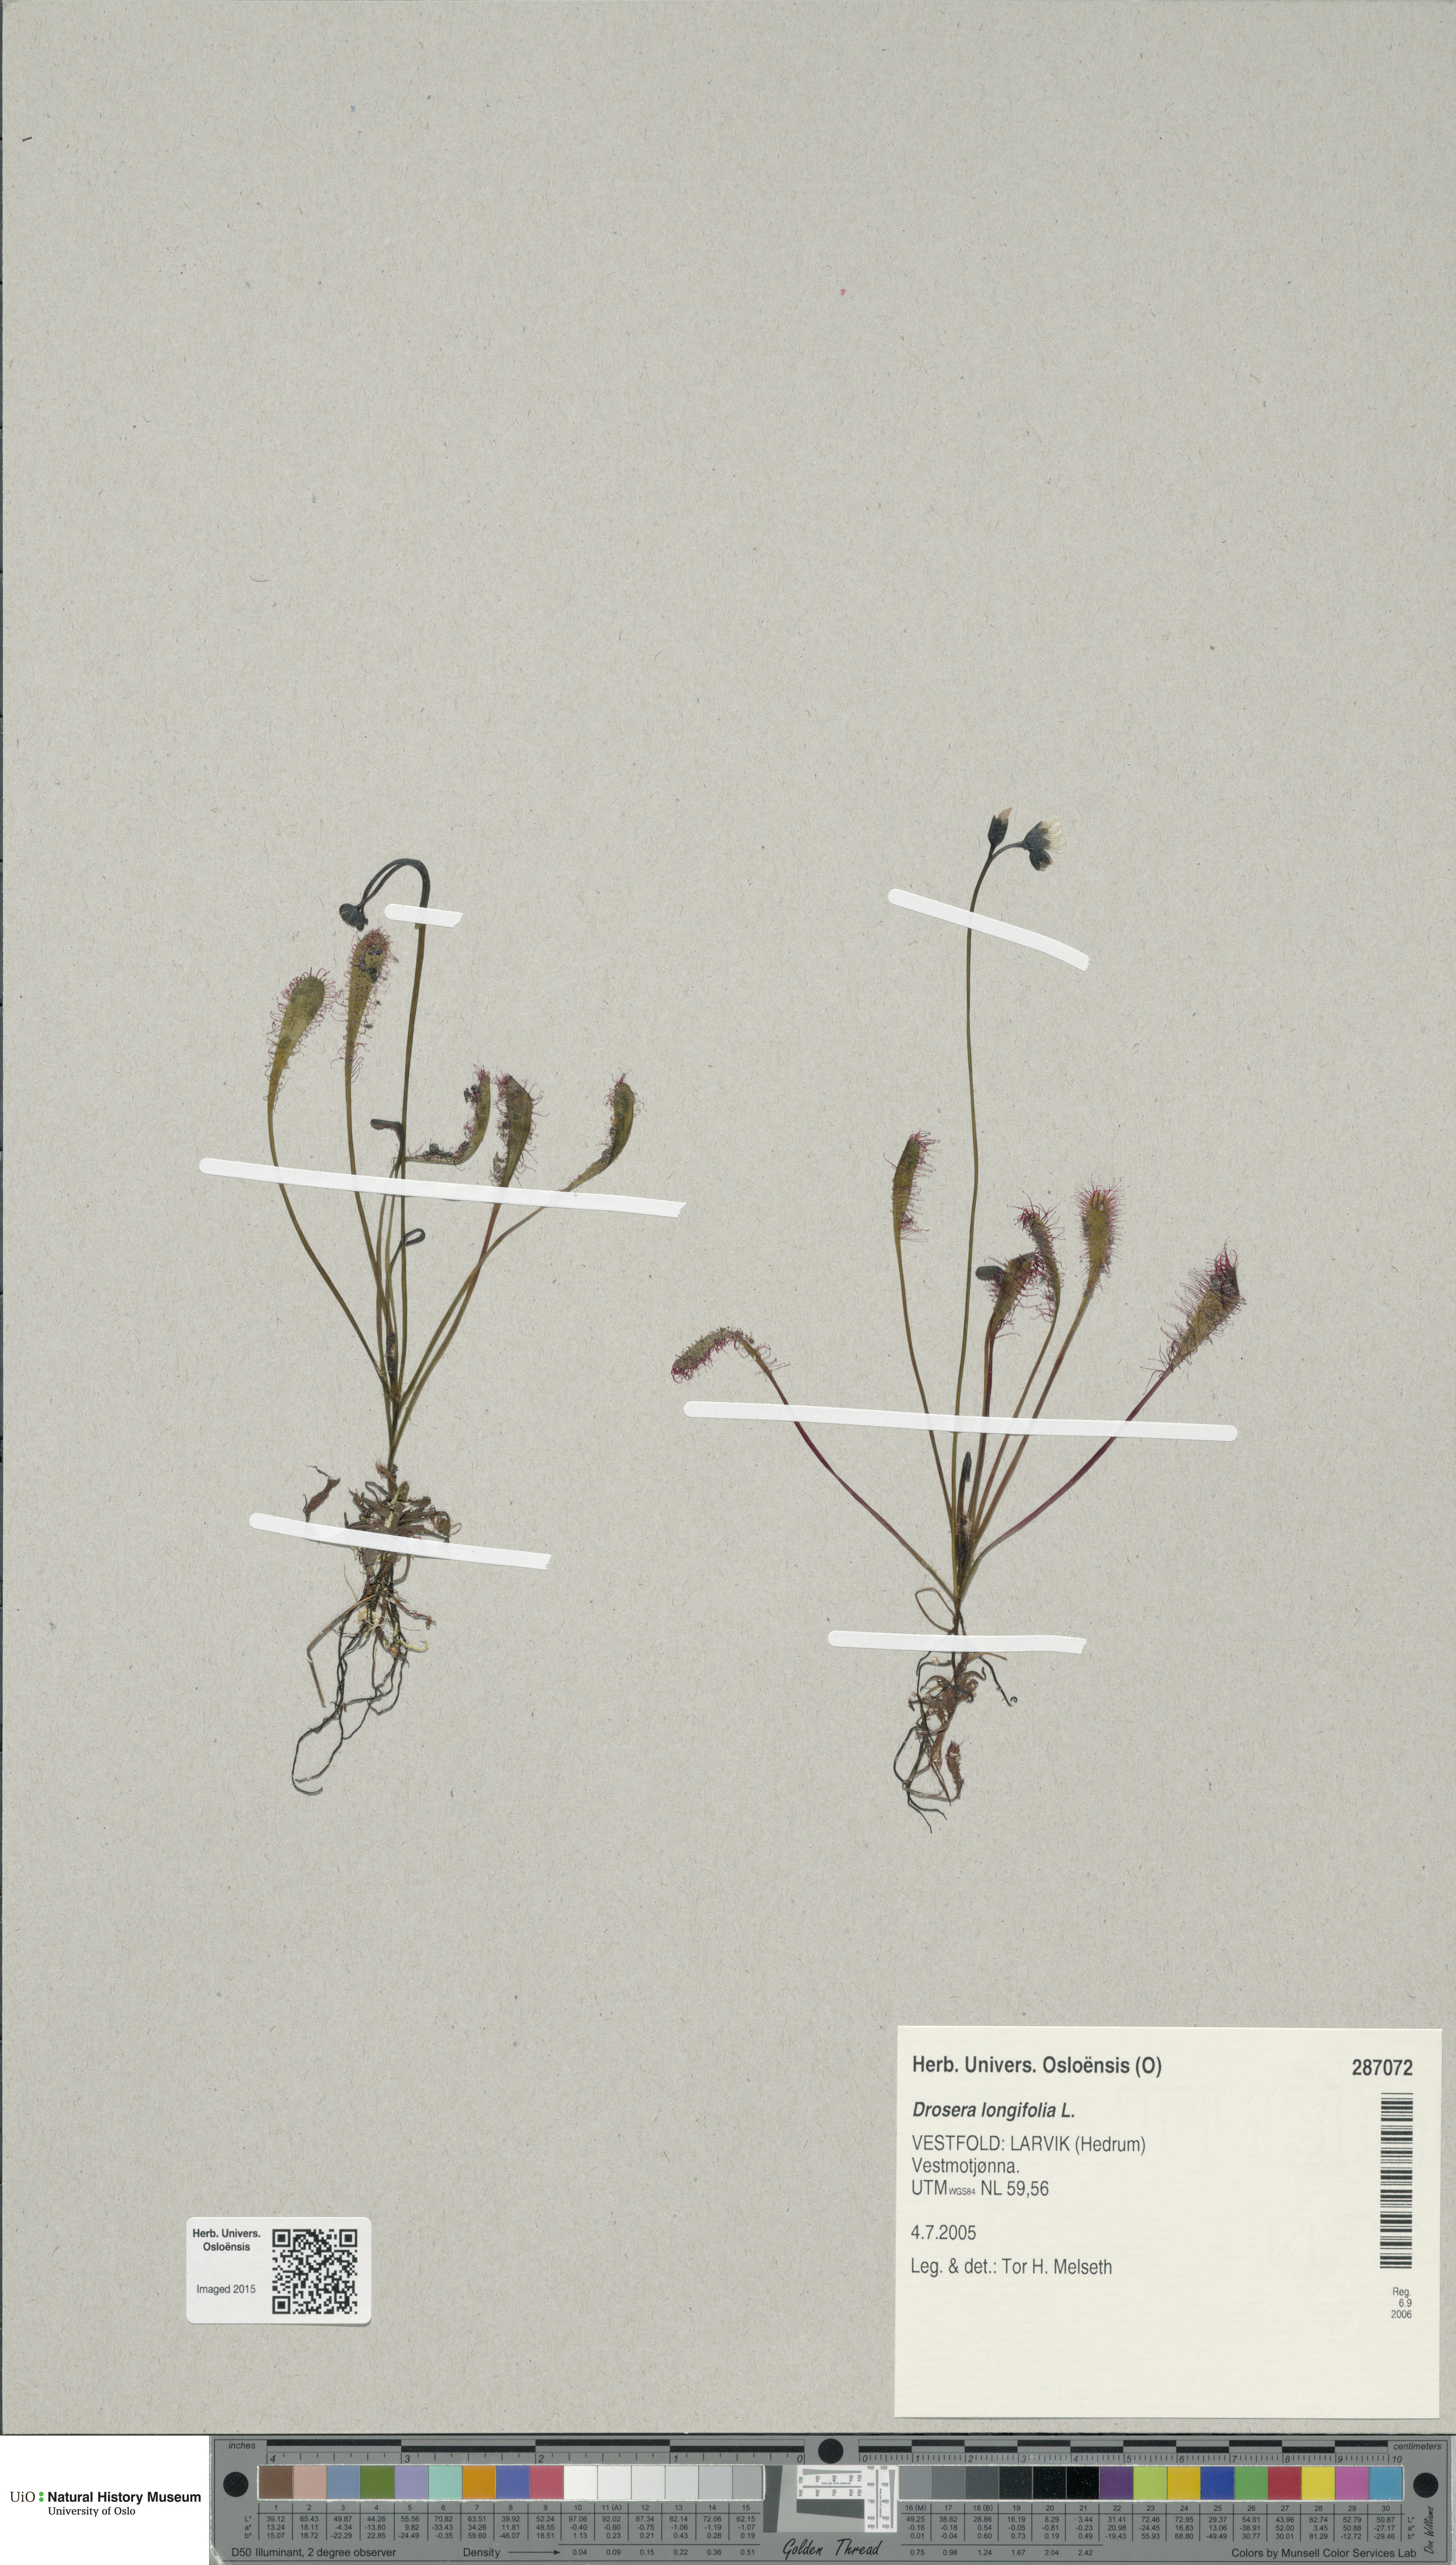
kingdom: Plantae
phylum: Tracheophyta
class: Magnoliopsida
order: Caryophyllales
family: Droseraceae
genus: Drosera
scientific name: Drosera anglica
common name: Great sundew
